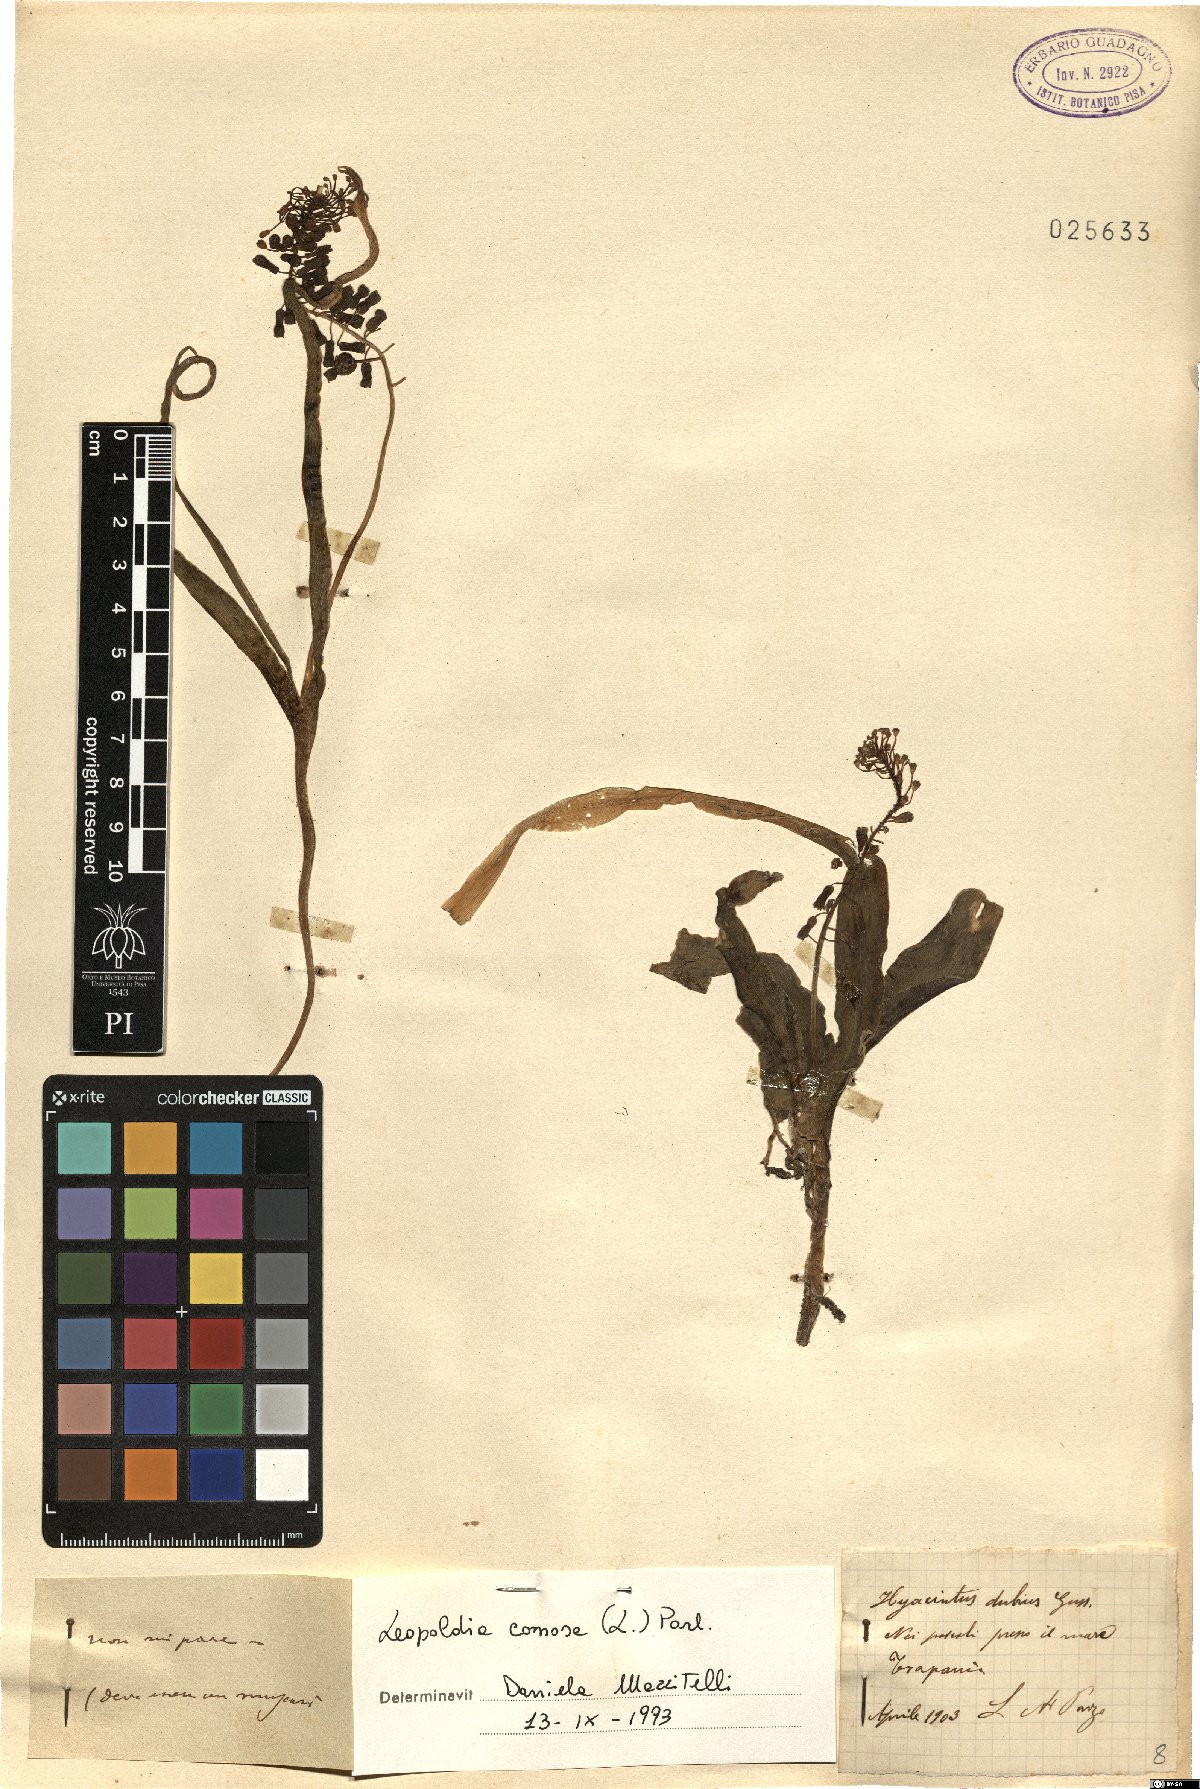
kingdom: Plantae
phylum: Tracheophyta
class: Liliopsida
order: Asparagales
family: Asparagaceae
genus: Muscari
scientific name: Muscari comosum
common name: Tassel hyacinth
